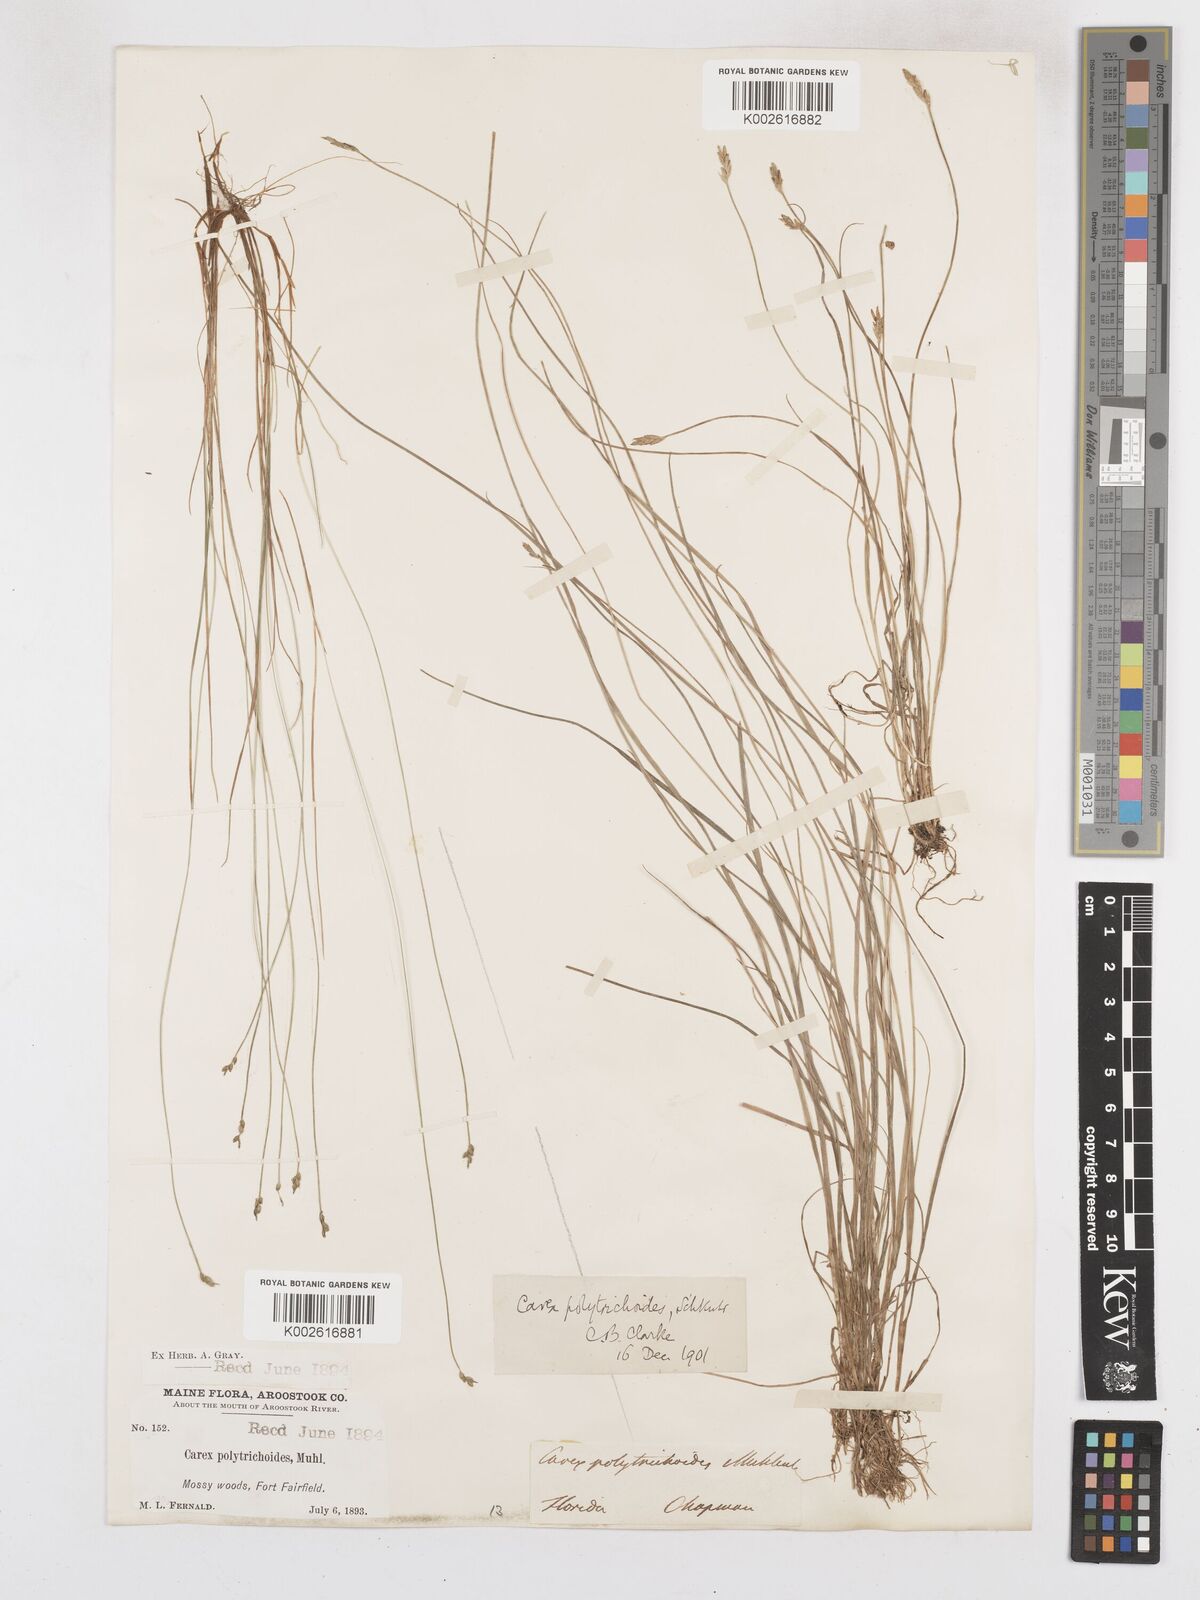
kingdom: Plantae
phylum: Tracheophyta
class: Liliopsida
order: Poales
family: Cyperaceae
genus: Carex
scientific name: Carex leptalea
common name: Bristly-stalked sedge
